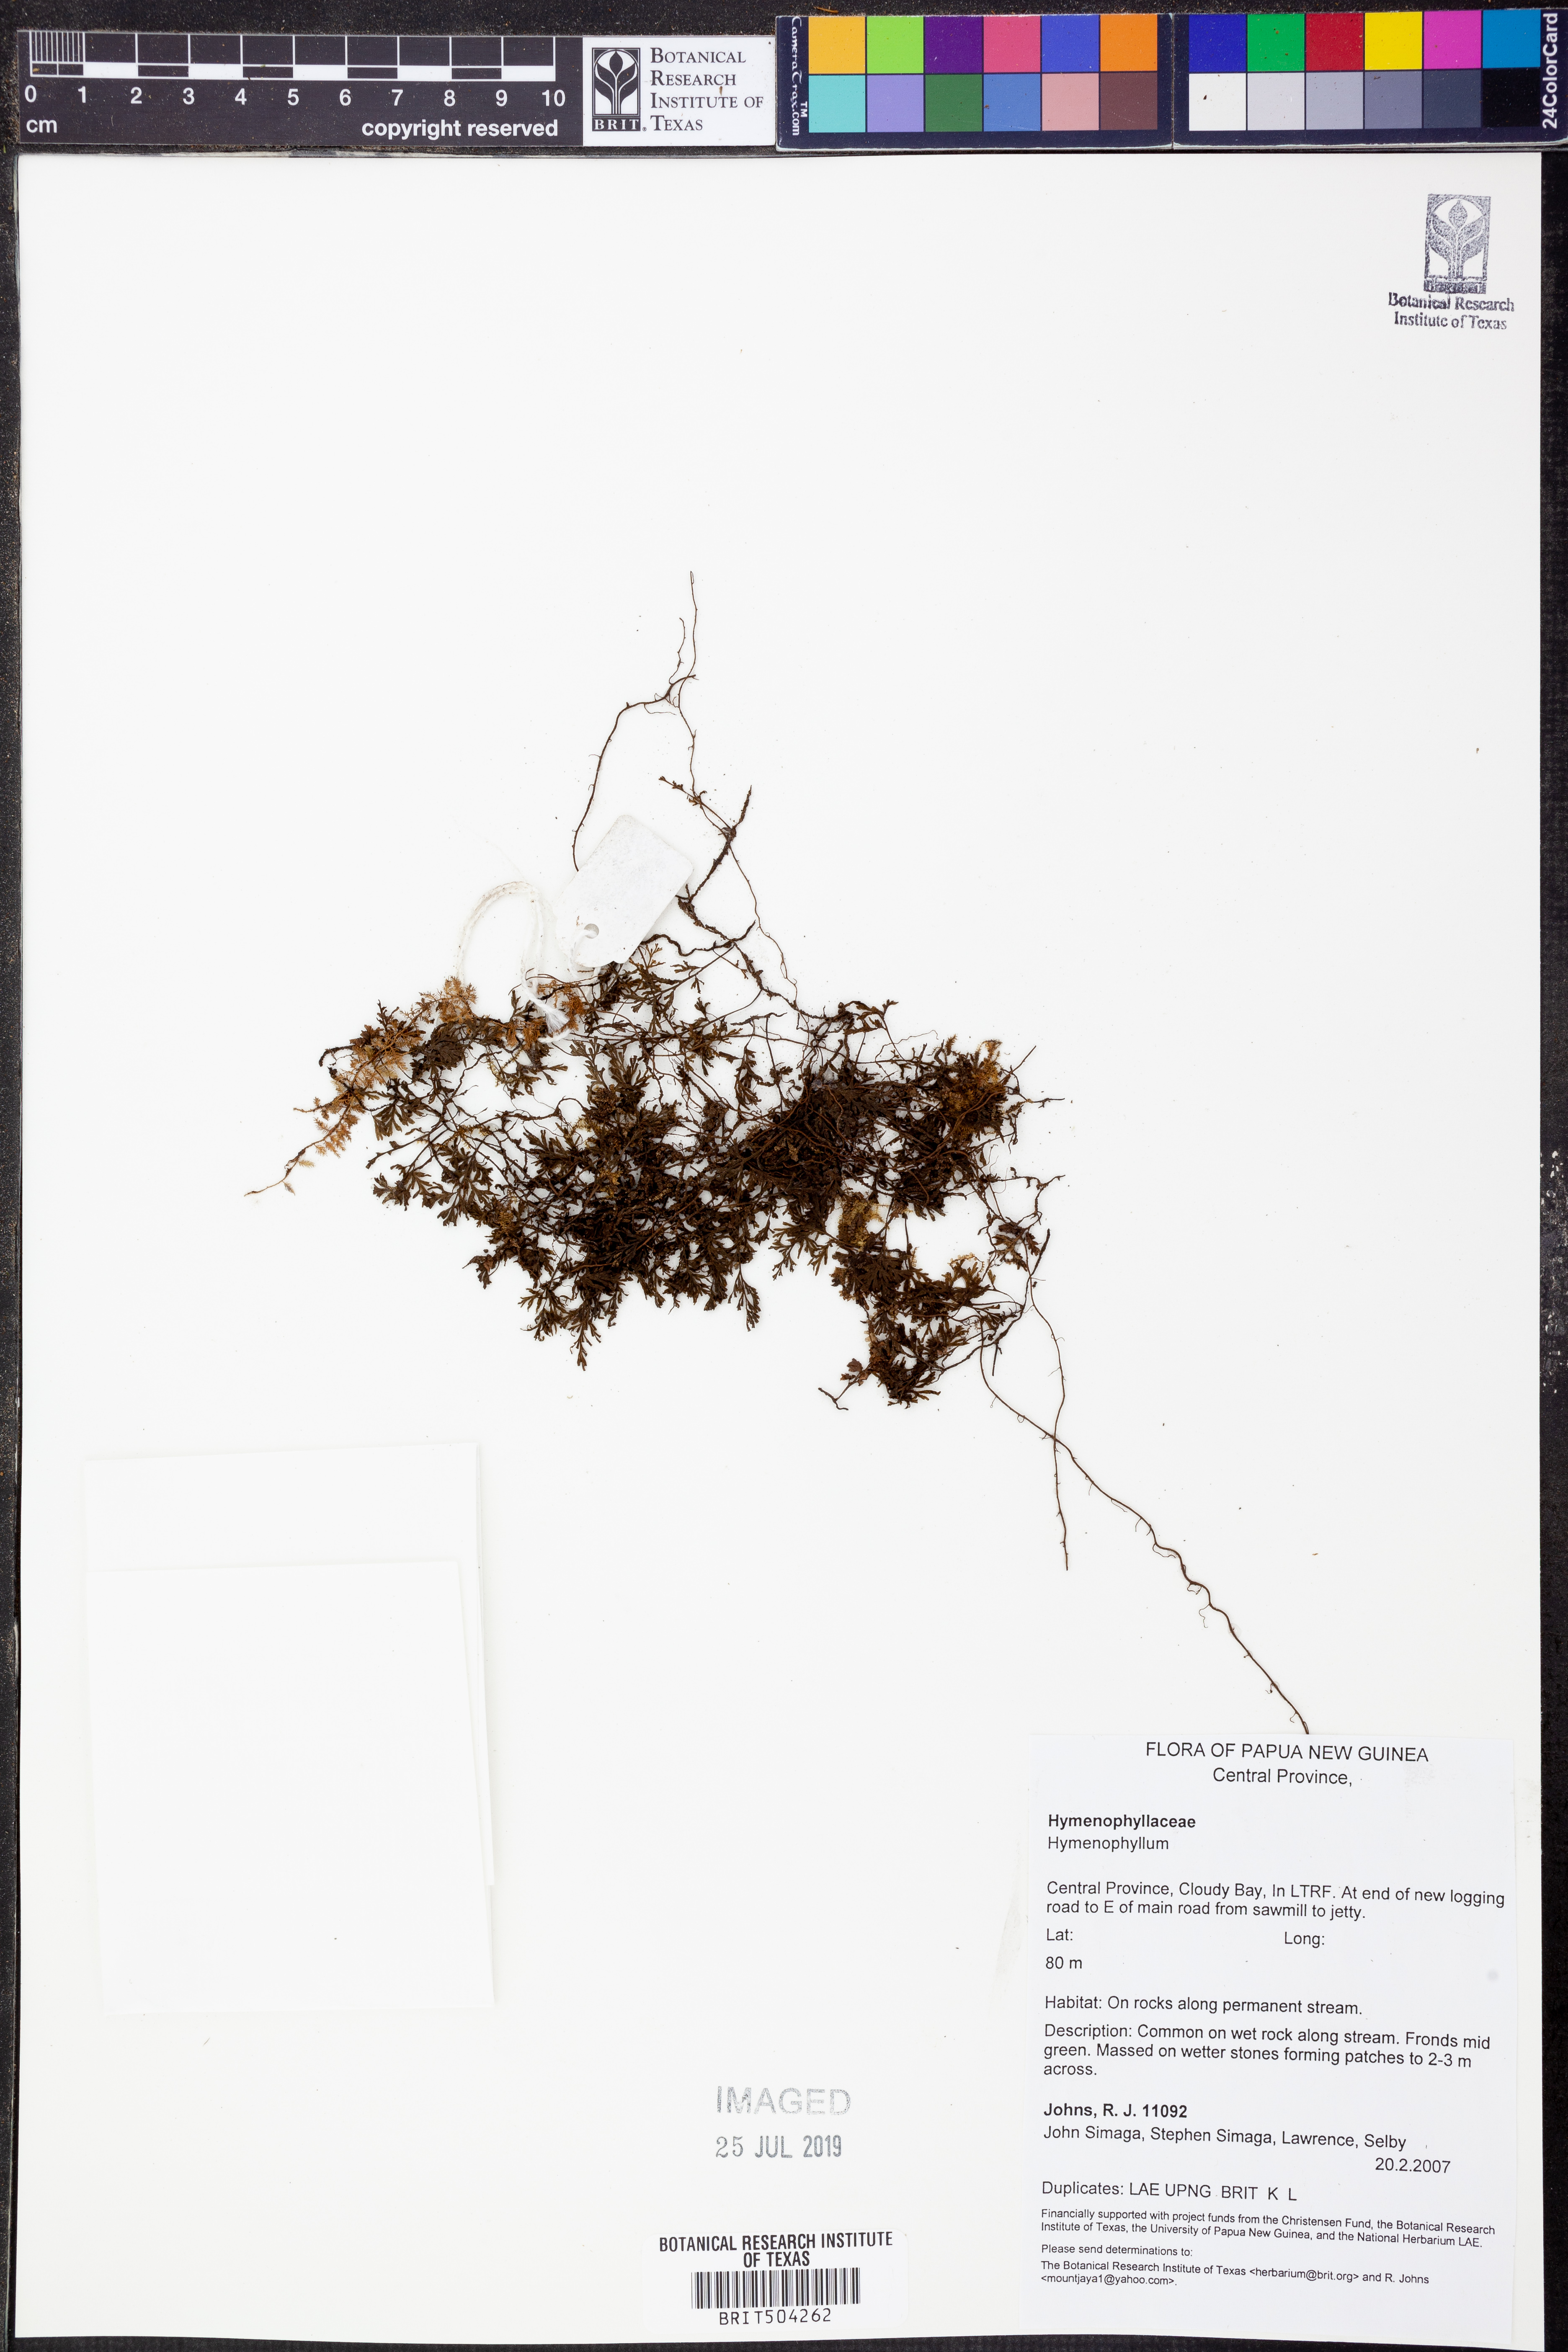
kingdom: Plantae
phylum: Tracheophyta
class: Polypodiopsida
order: Hymenophyllales
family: Hymenophyllaceae
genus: Hymenophyllum
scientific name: Hymenophyllum
